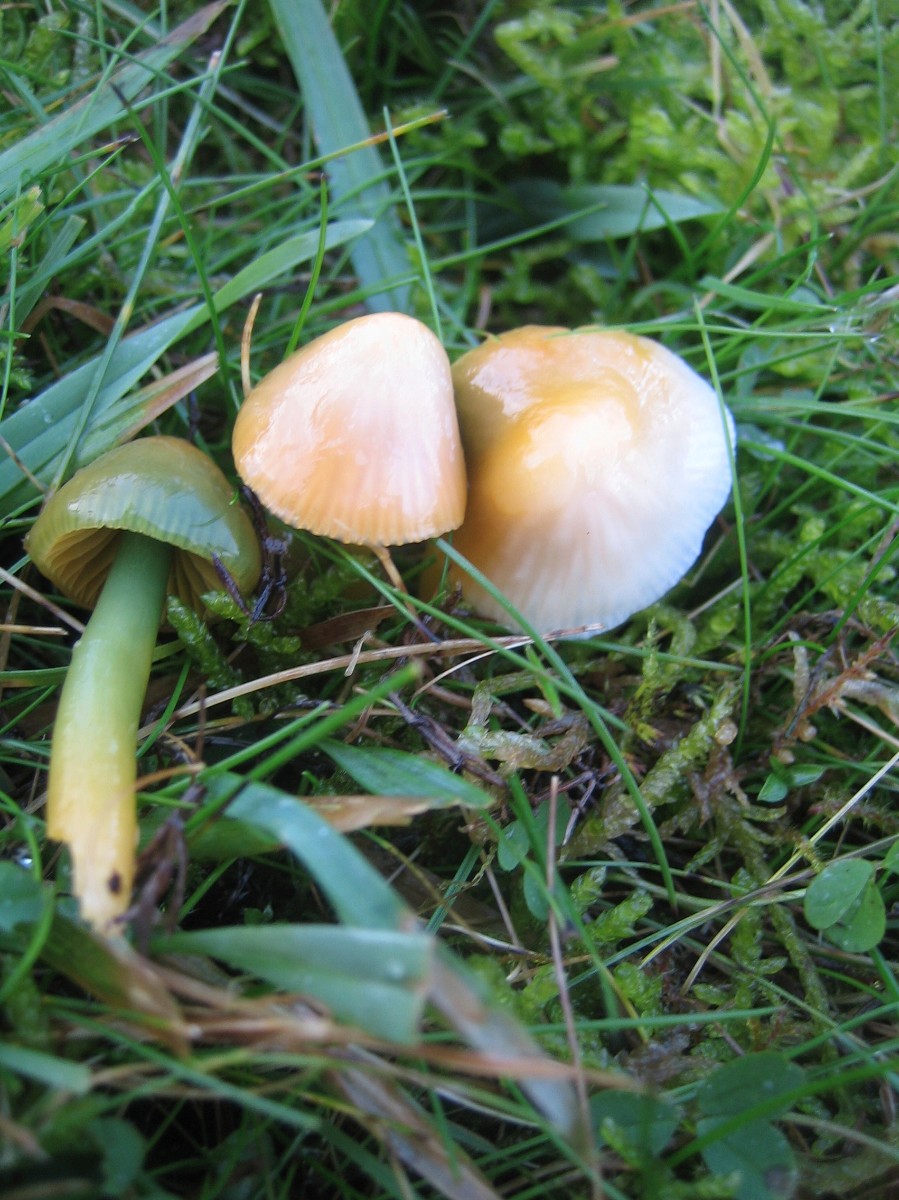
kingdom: Fungi
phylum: Basidiomycota
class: Agaricomycetes
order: Agaricales
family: Hygrophoraceae
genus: Gliophorus
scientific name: Gliophorus psittacinus
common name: papegøje-vokshat
